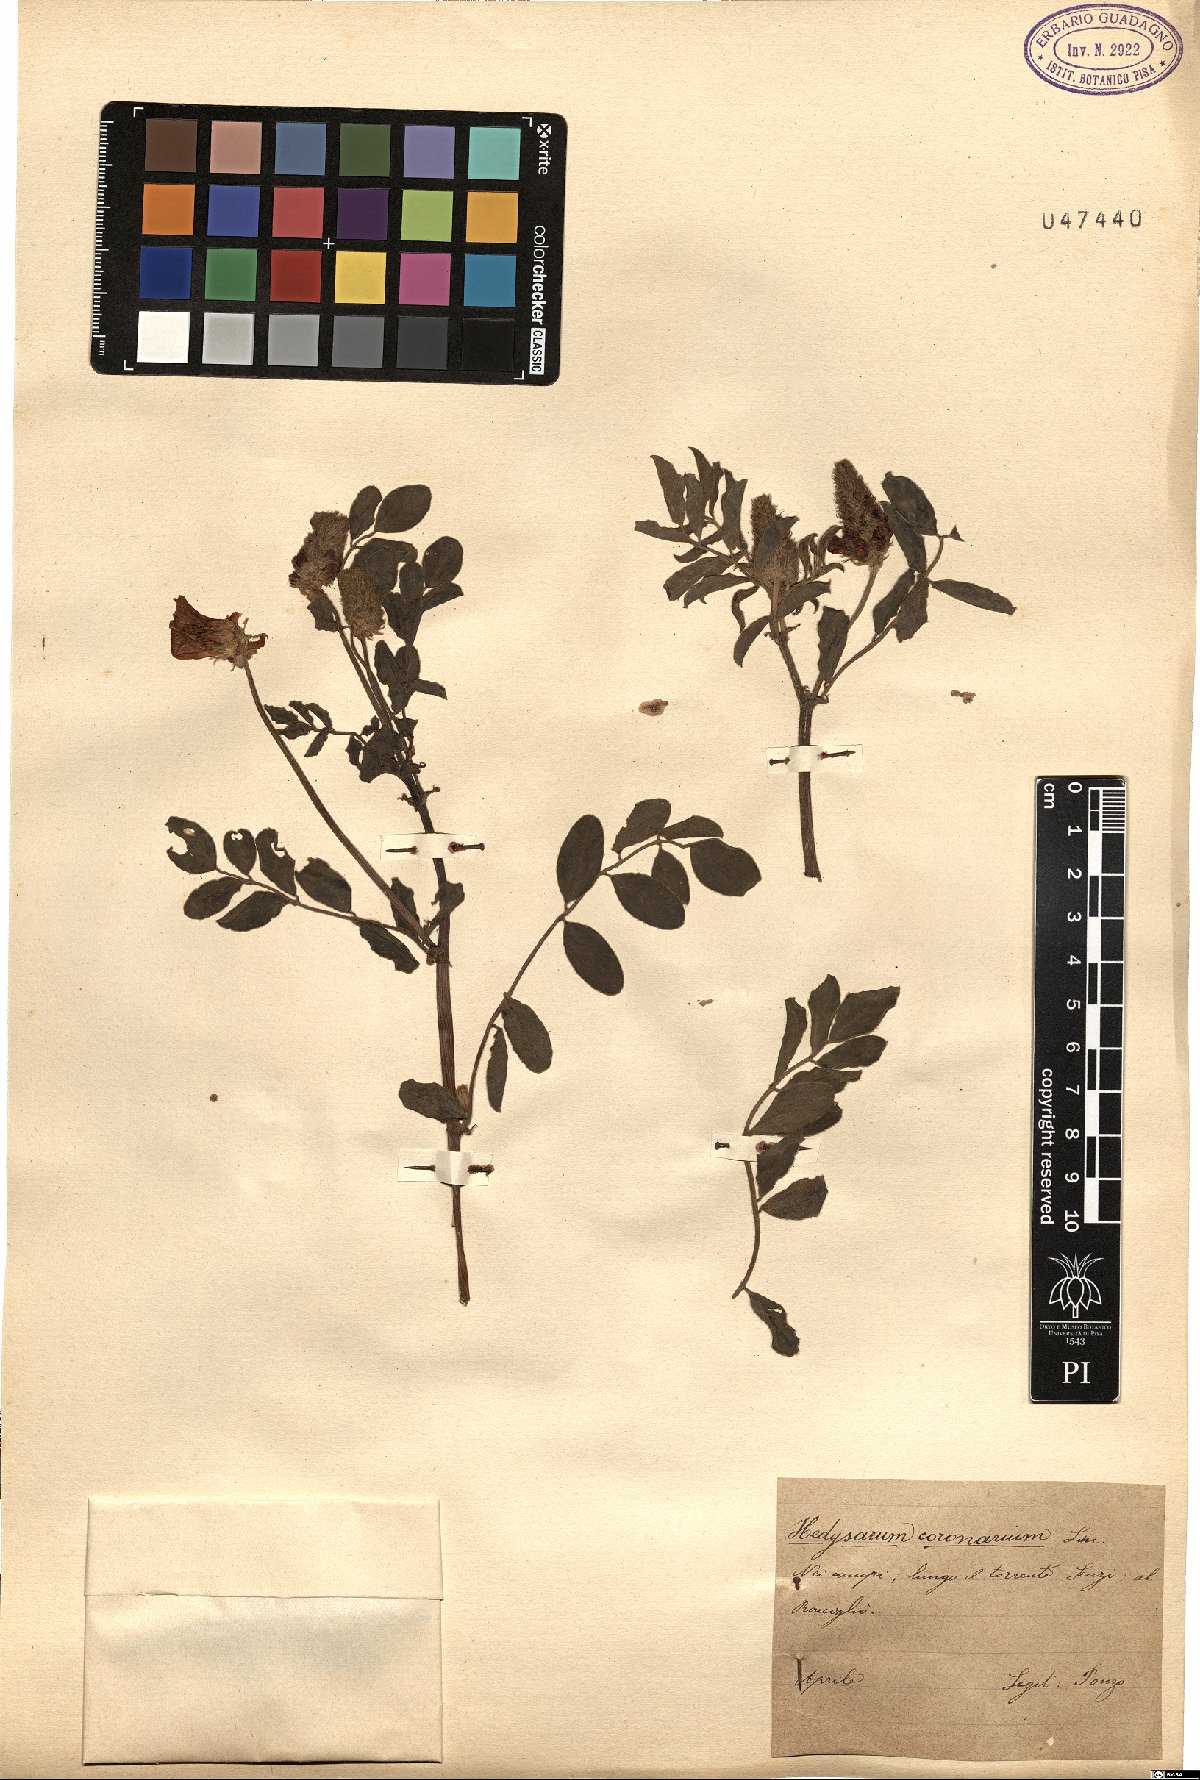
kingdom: Plantae
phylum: Tracheophyta
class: Magnoliopsida
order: Fabales
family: Fabaceae
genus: Sulla
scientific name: Sulla coronaria
